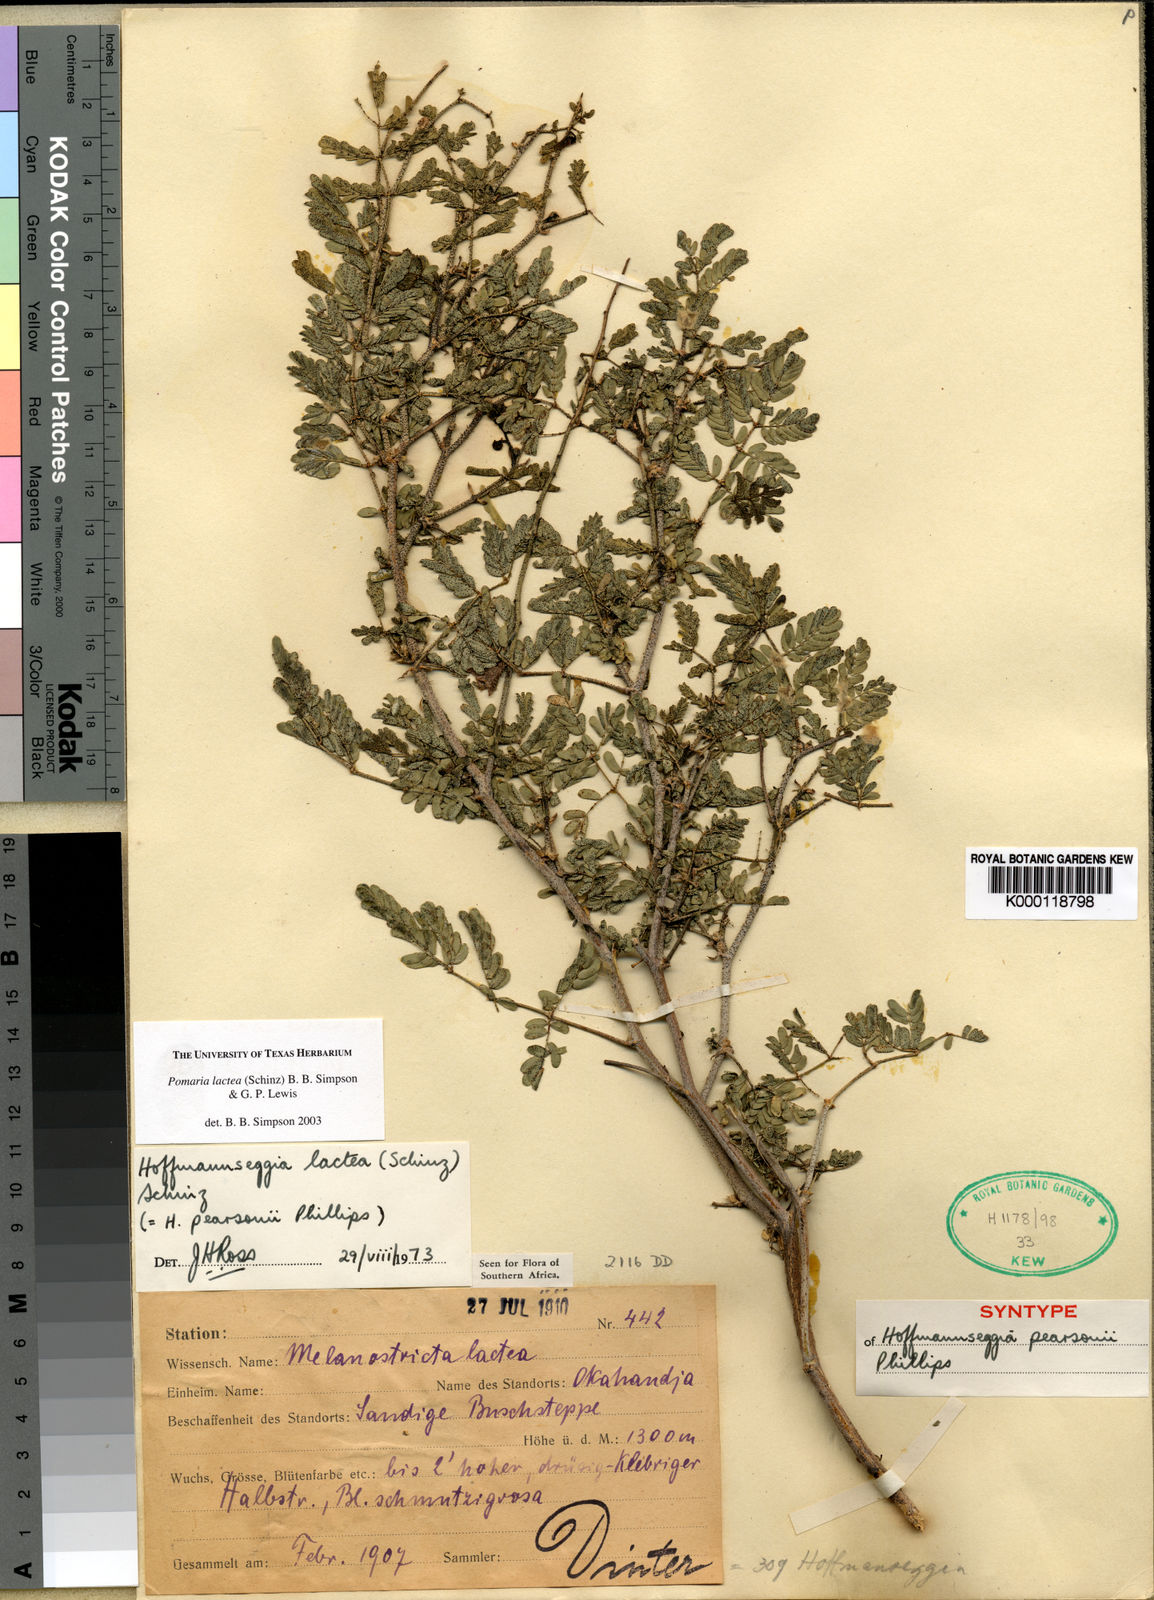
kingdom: Plantae
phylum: Tracheophyta
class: Magnoliopsida
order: Fabales
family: Fabaceae
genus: Pomaria
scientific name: Pomaria lactea
